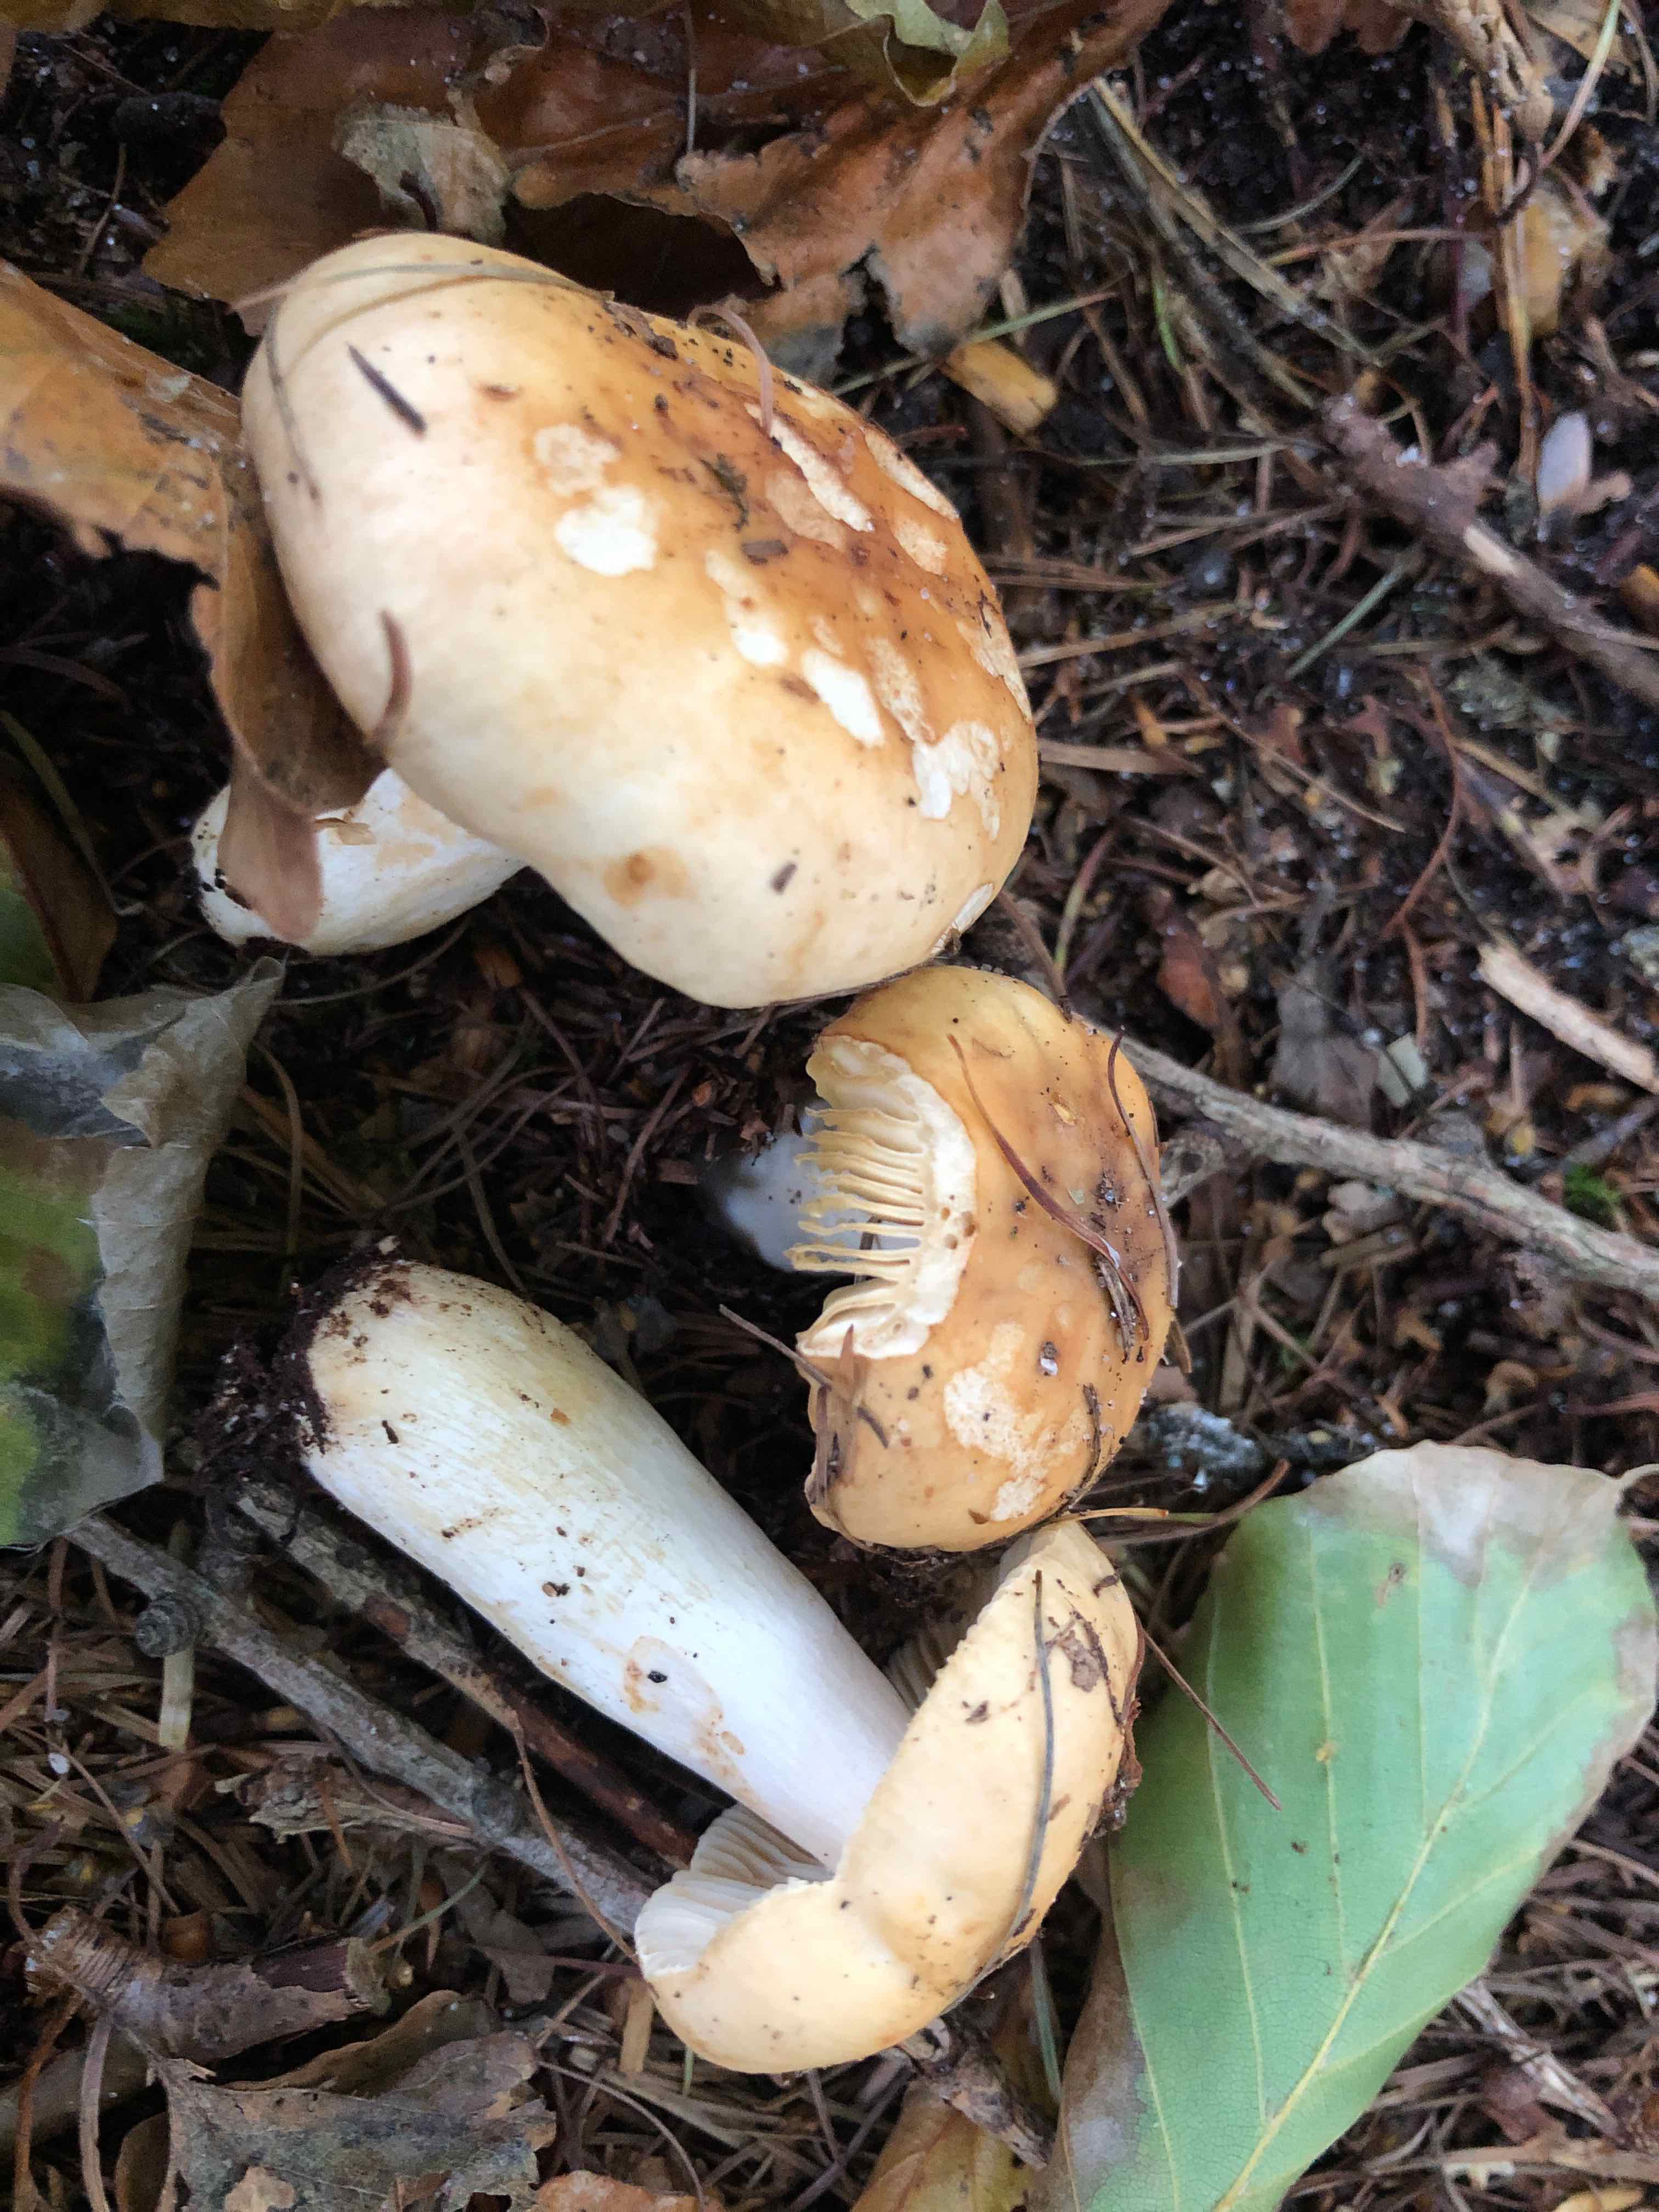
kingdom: Fungi
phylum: Basidiomycota
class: Agaricomycetes
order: Russulales
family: Russulaceae
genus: Russula
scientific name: Russula fellea
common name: galde-skørhat
